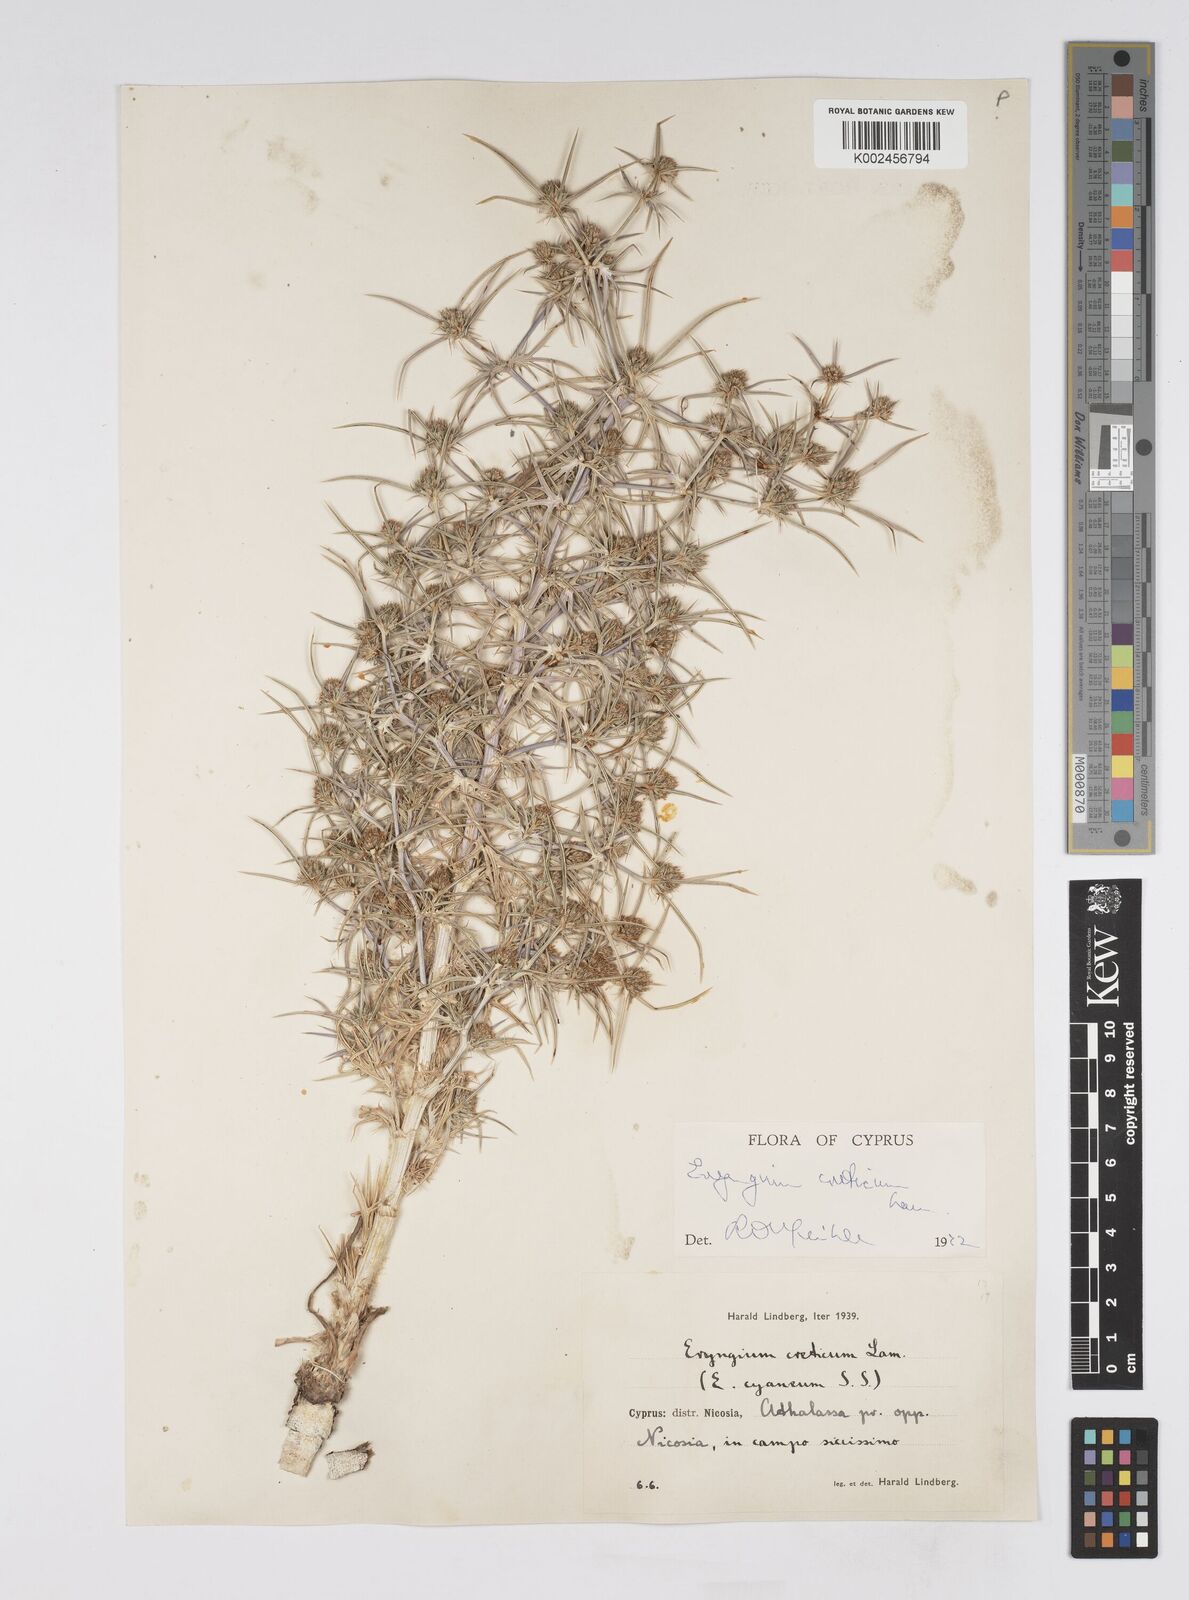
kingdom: Plantae
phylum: Tracheophyta
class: Magnoliopsida
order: Apiales
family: Apiaceae
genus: Eryngium
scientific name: Eryngium creticum
